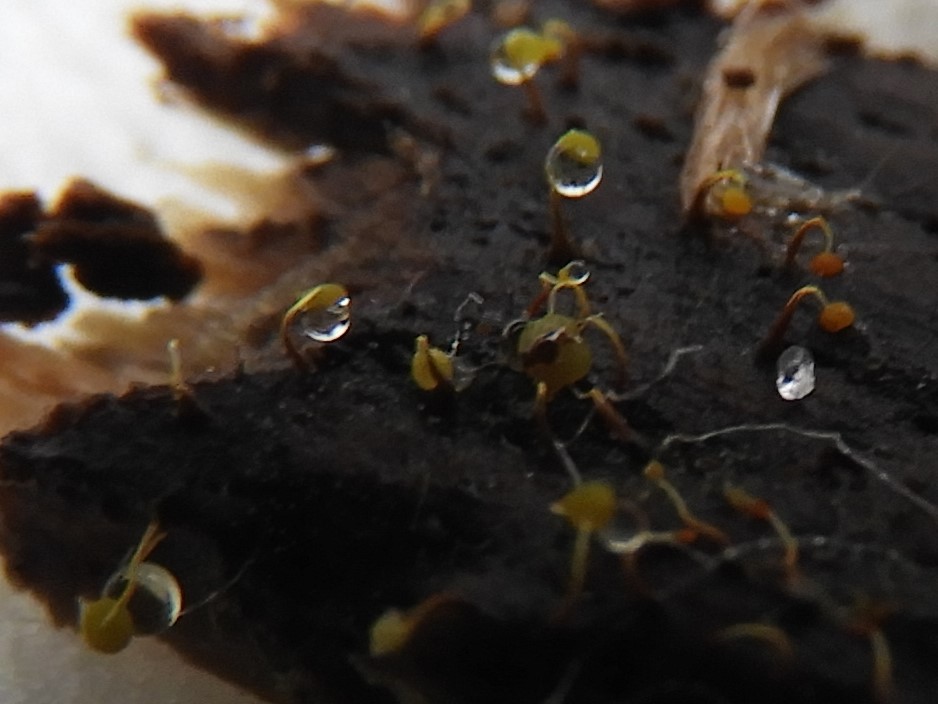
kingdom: Protozoa
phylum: Mycetozoa
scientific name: Mycetozoa
